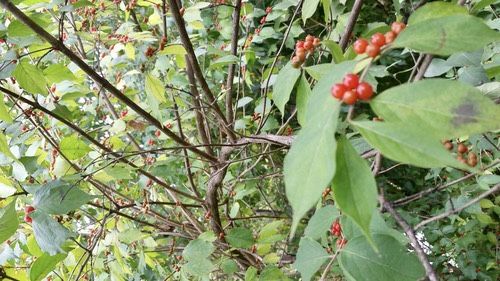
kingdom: Plantae
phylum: Tracheophyta
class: Magnoliopsida
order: Dipsacales
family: Caprifoliaceae
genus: Lonicera
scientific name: Lonicera maackii
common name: Amur honeysuckle
